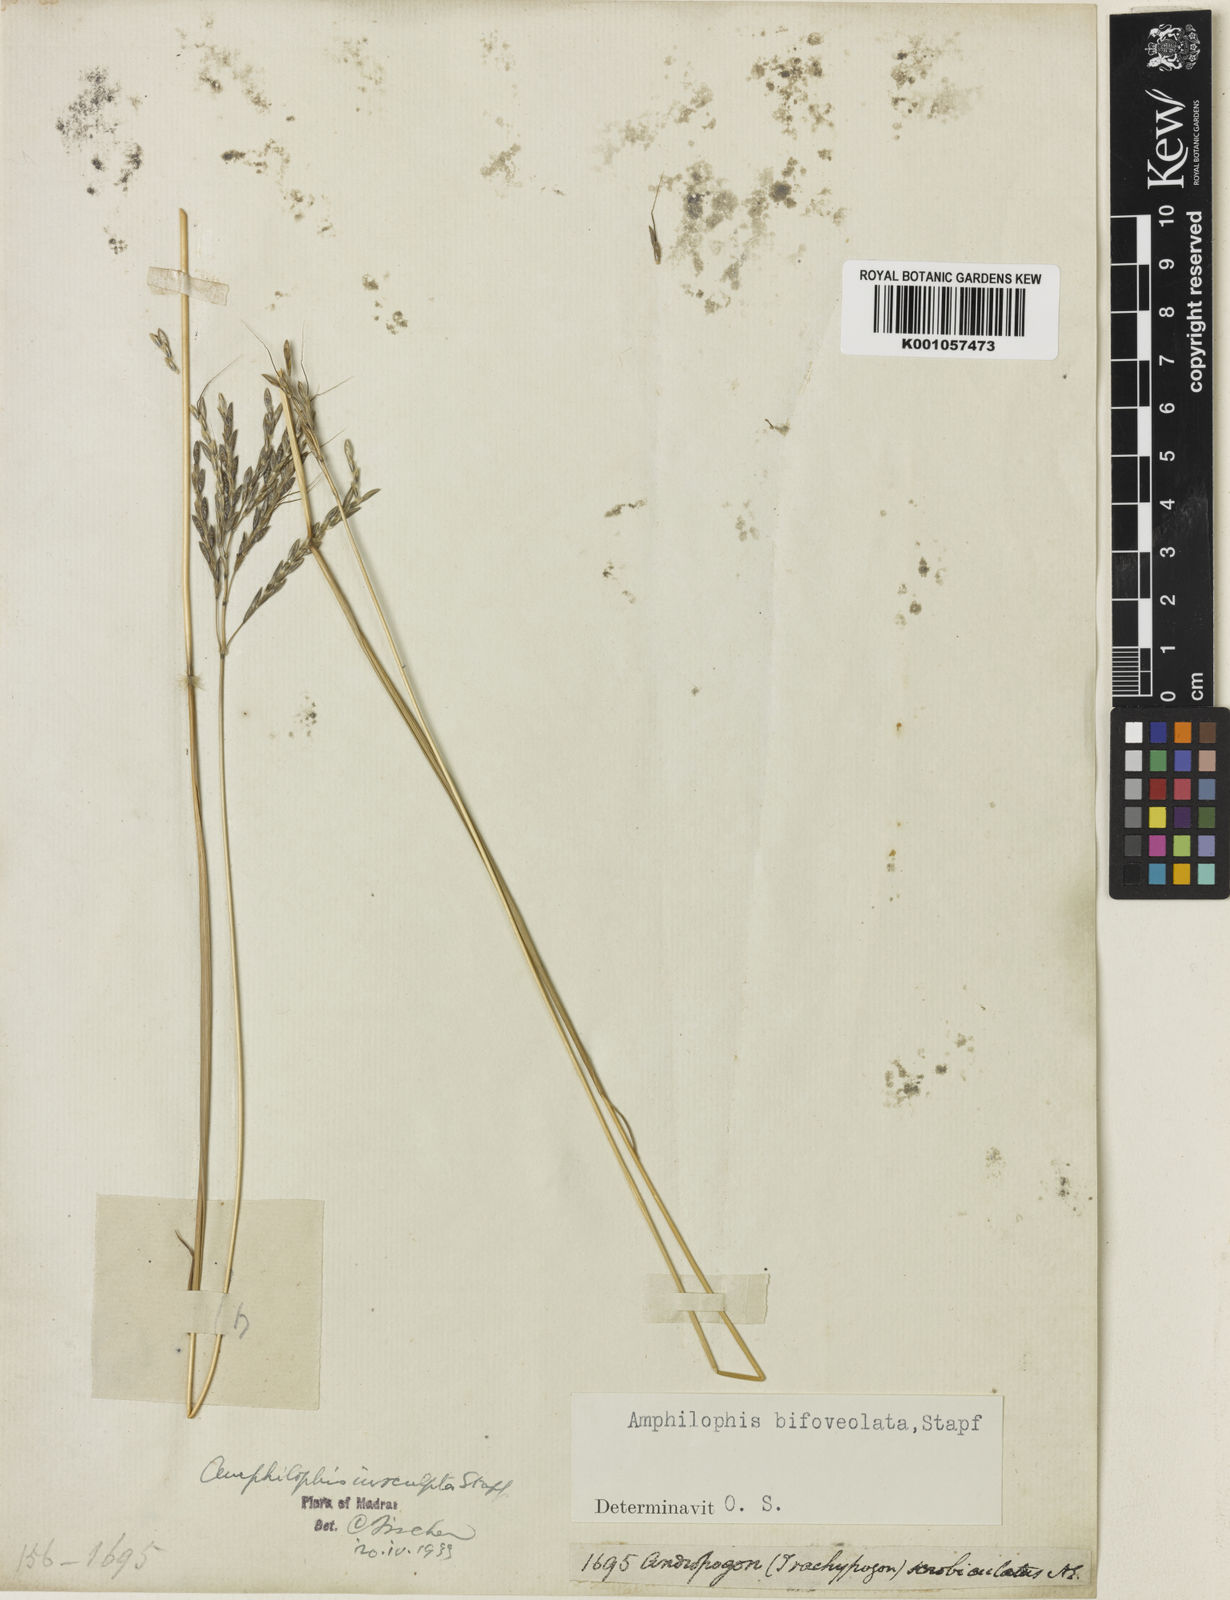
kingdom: Plantae
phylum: Tracheophyta
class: Liliopsida
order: Poales
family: Poaceae
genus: Bothriochloa
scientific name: Bothriochloa insculpta
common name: Creeping-bluegrass
